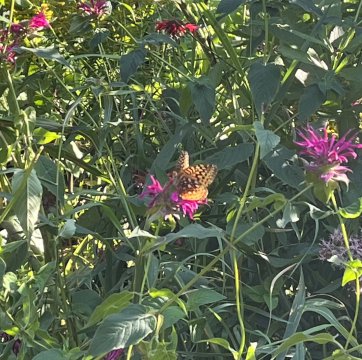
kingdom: Animalia
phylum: Arthropoda
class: Insecta
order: Lepidoptera
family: Nymphalidae
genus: Speyeria
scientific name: Speyeria cybele
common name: Great Spangled Fritillary
